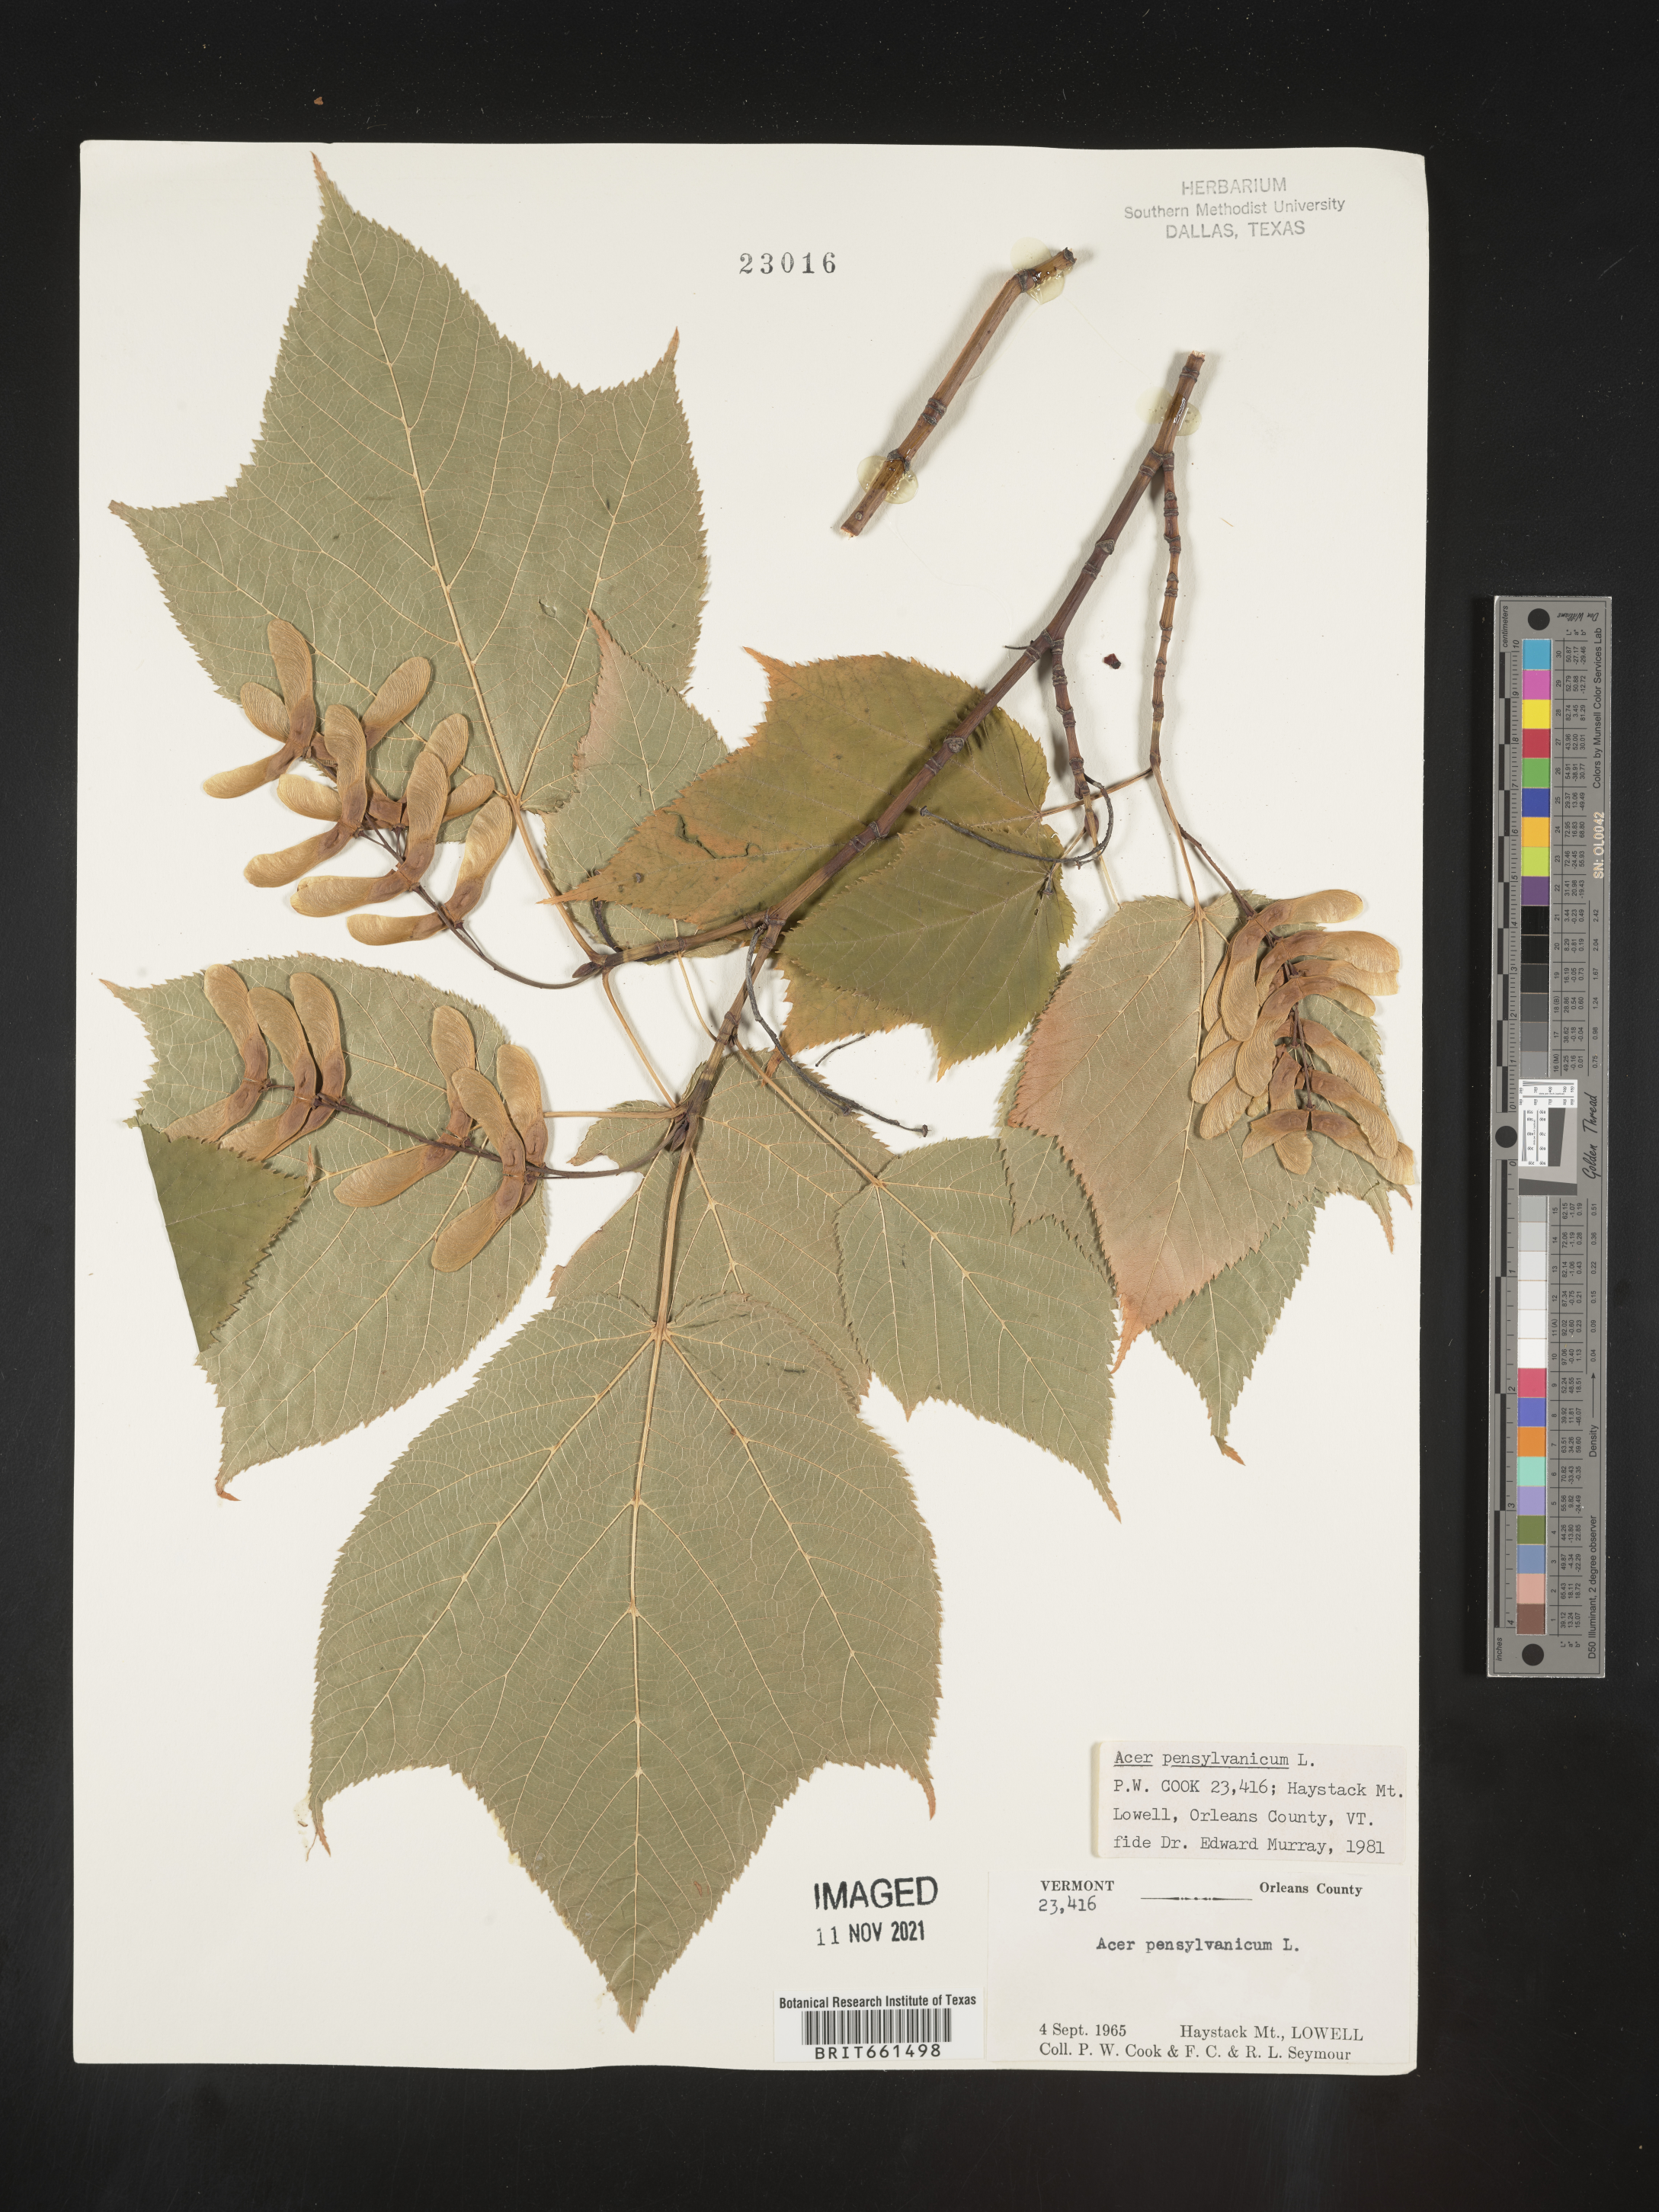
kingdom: Plantae
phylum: Tracheophyta
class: Magnoliopsida
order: Sapindales
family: Sapindaceae
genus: Acer
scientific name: Acer pensylvanicum
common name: Moosewood
